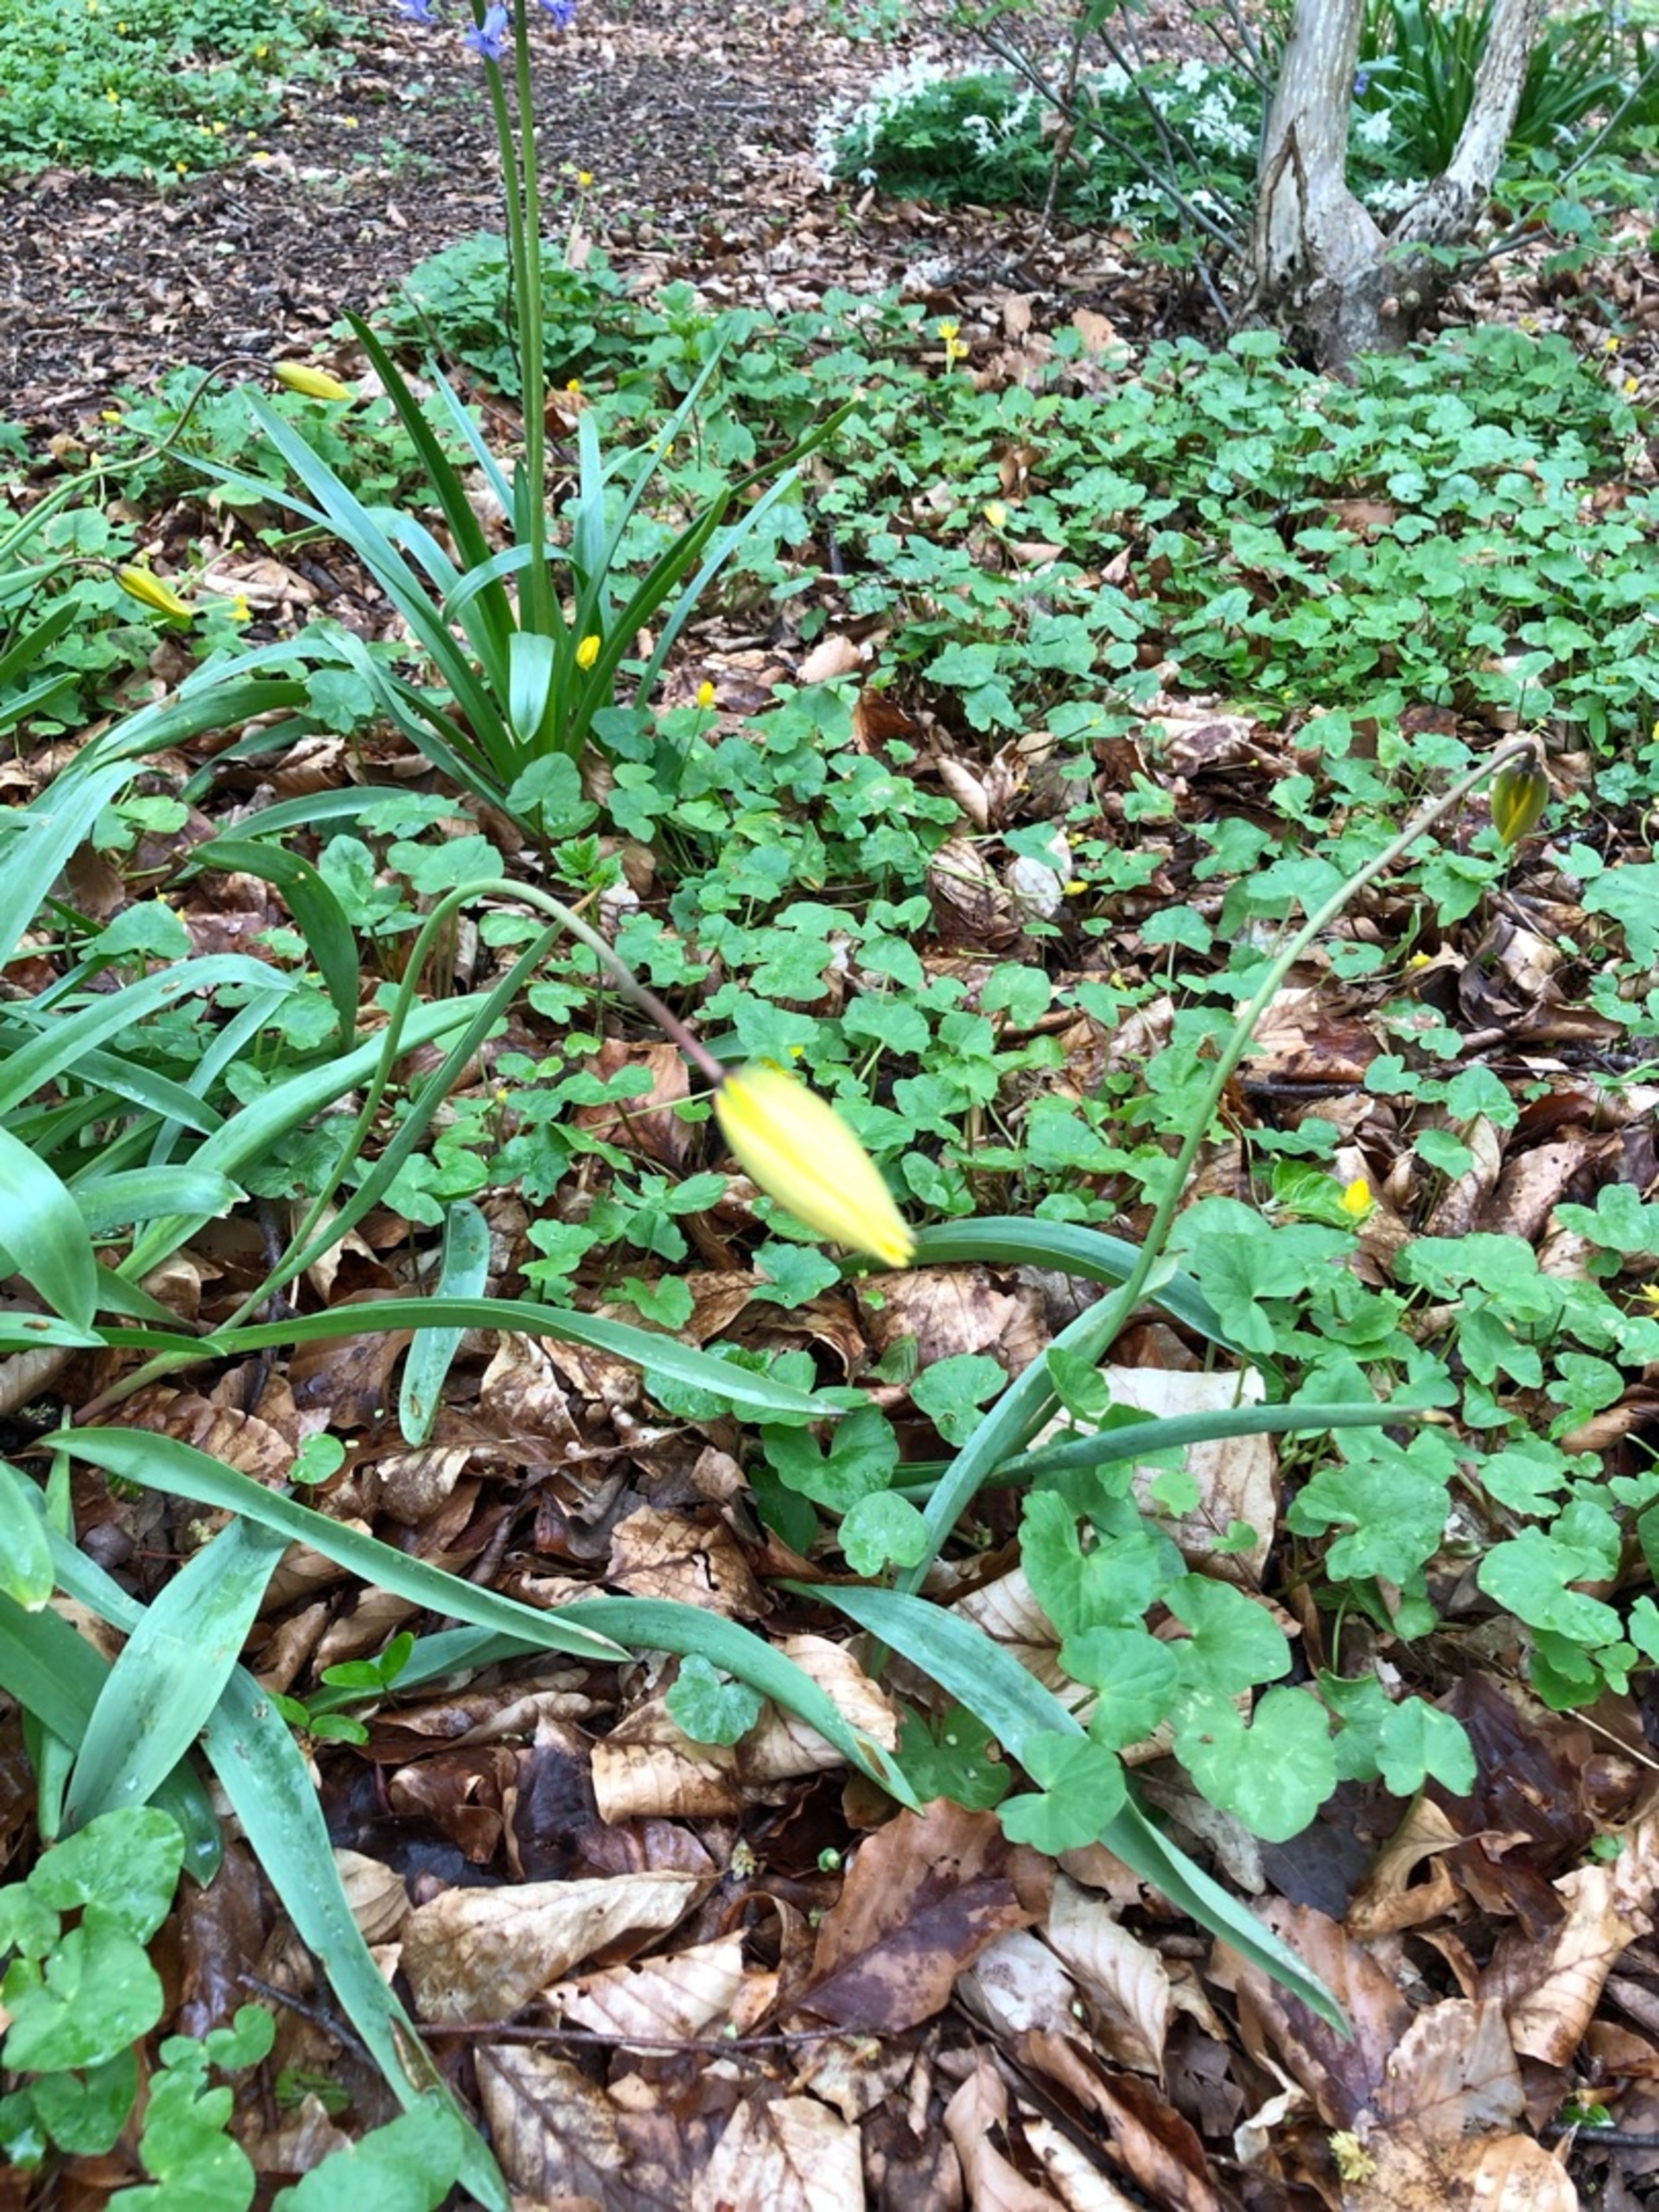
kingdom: Plantae
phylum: Tracheophyta
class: Liliopsida
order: Liliales
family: Liliaceae
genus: Tulipa
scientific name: Tulipa sylvestris
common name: Vild tulipan
